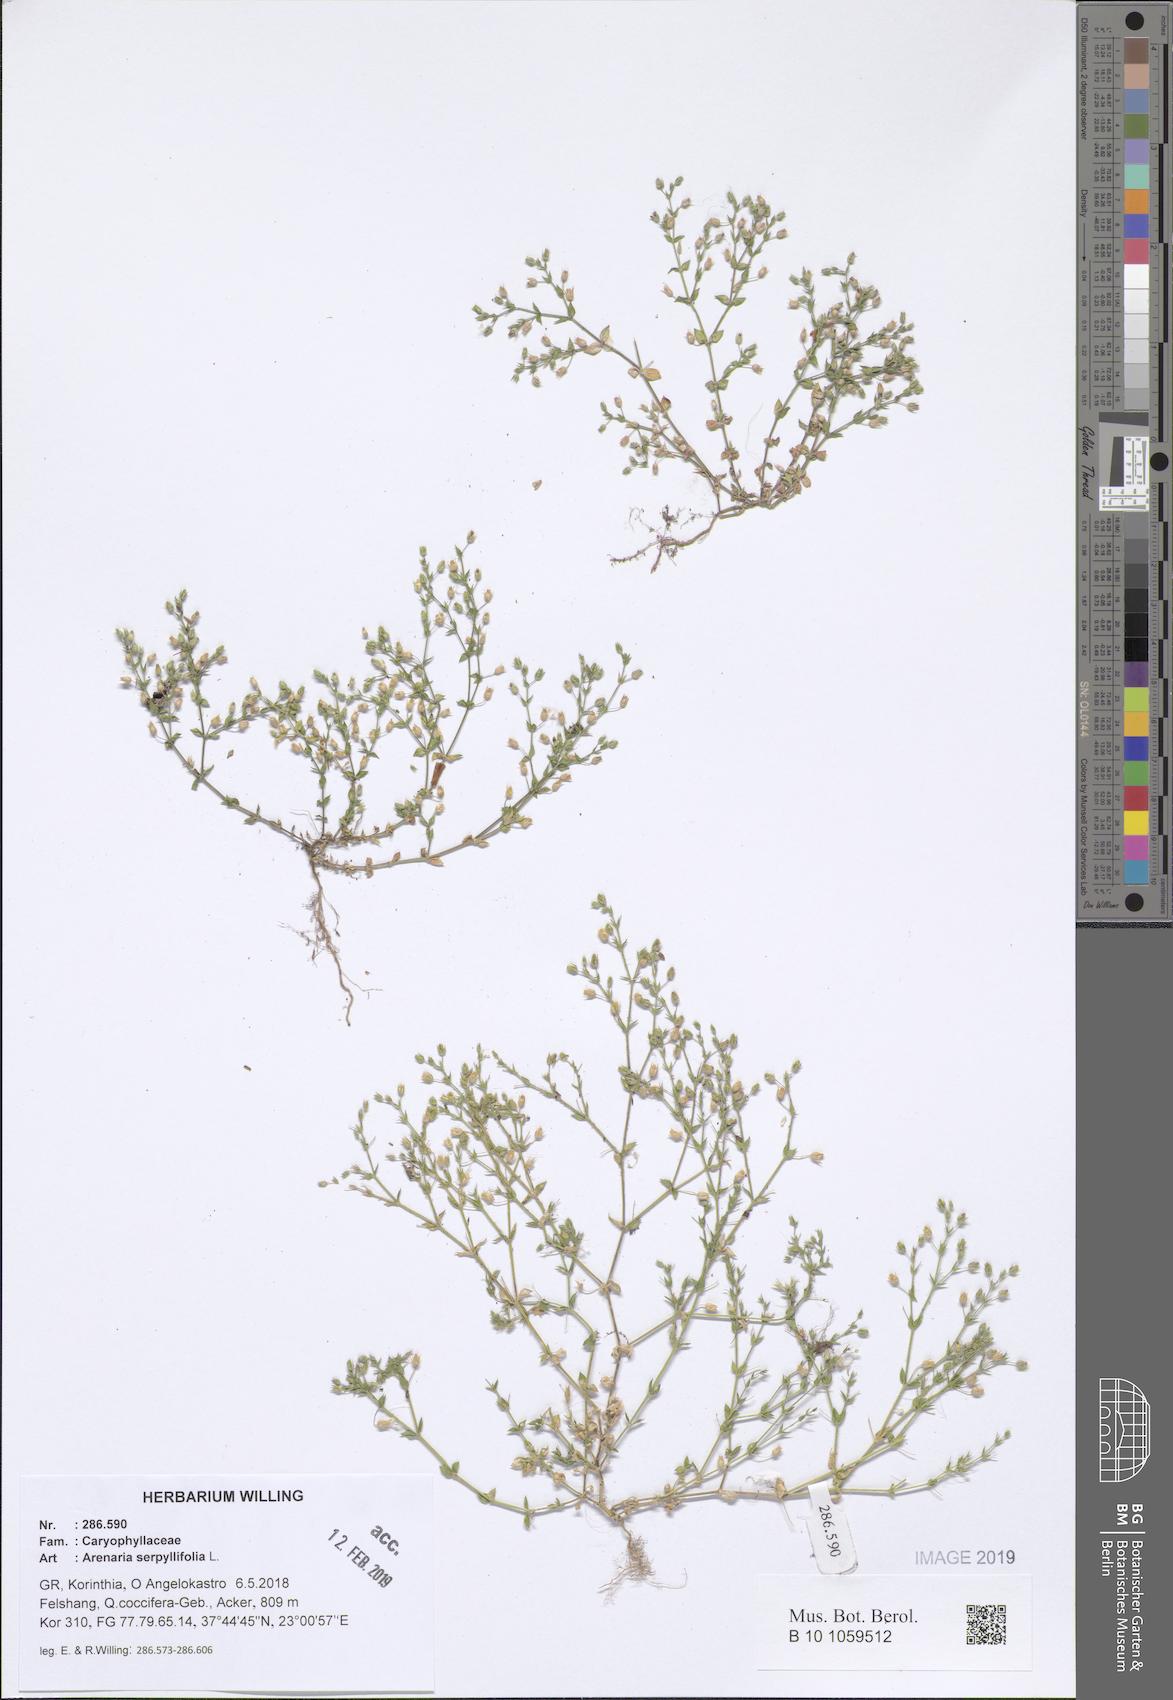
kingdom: Plantae
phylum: Tracheophyta
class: Magnoliopsida
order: Caryophyllales
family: Caryophyllaceae
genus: Arenaria
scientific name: Arenaria serpyllifolia
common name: Thyme-leaved sandwort
